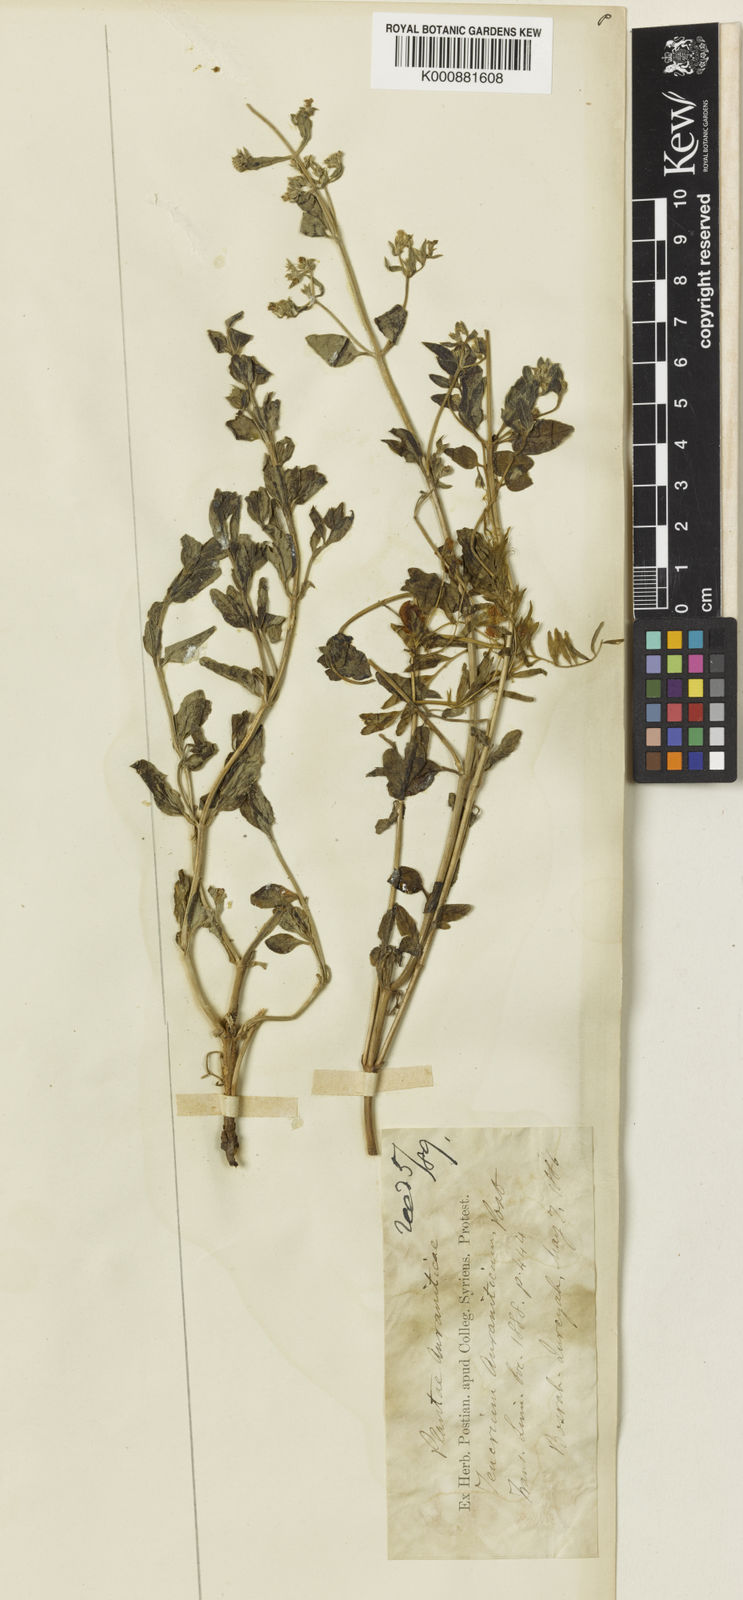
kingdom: Plantae
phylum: Tracheophyta
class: Magnoliopsida
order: Lamiales
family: Lamiaceae
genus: Nepeta
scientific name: Nepeta stricta
